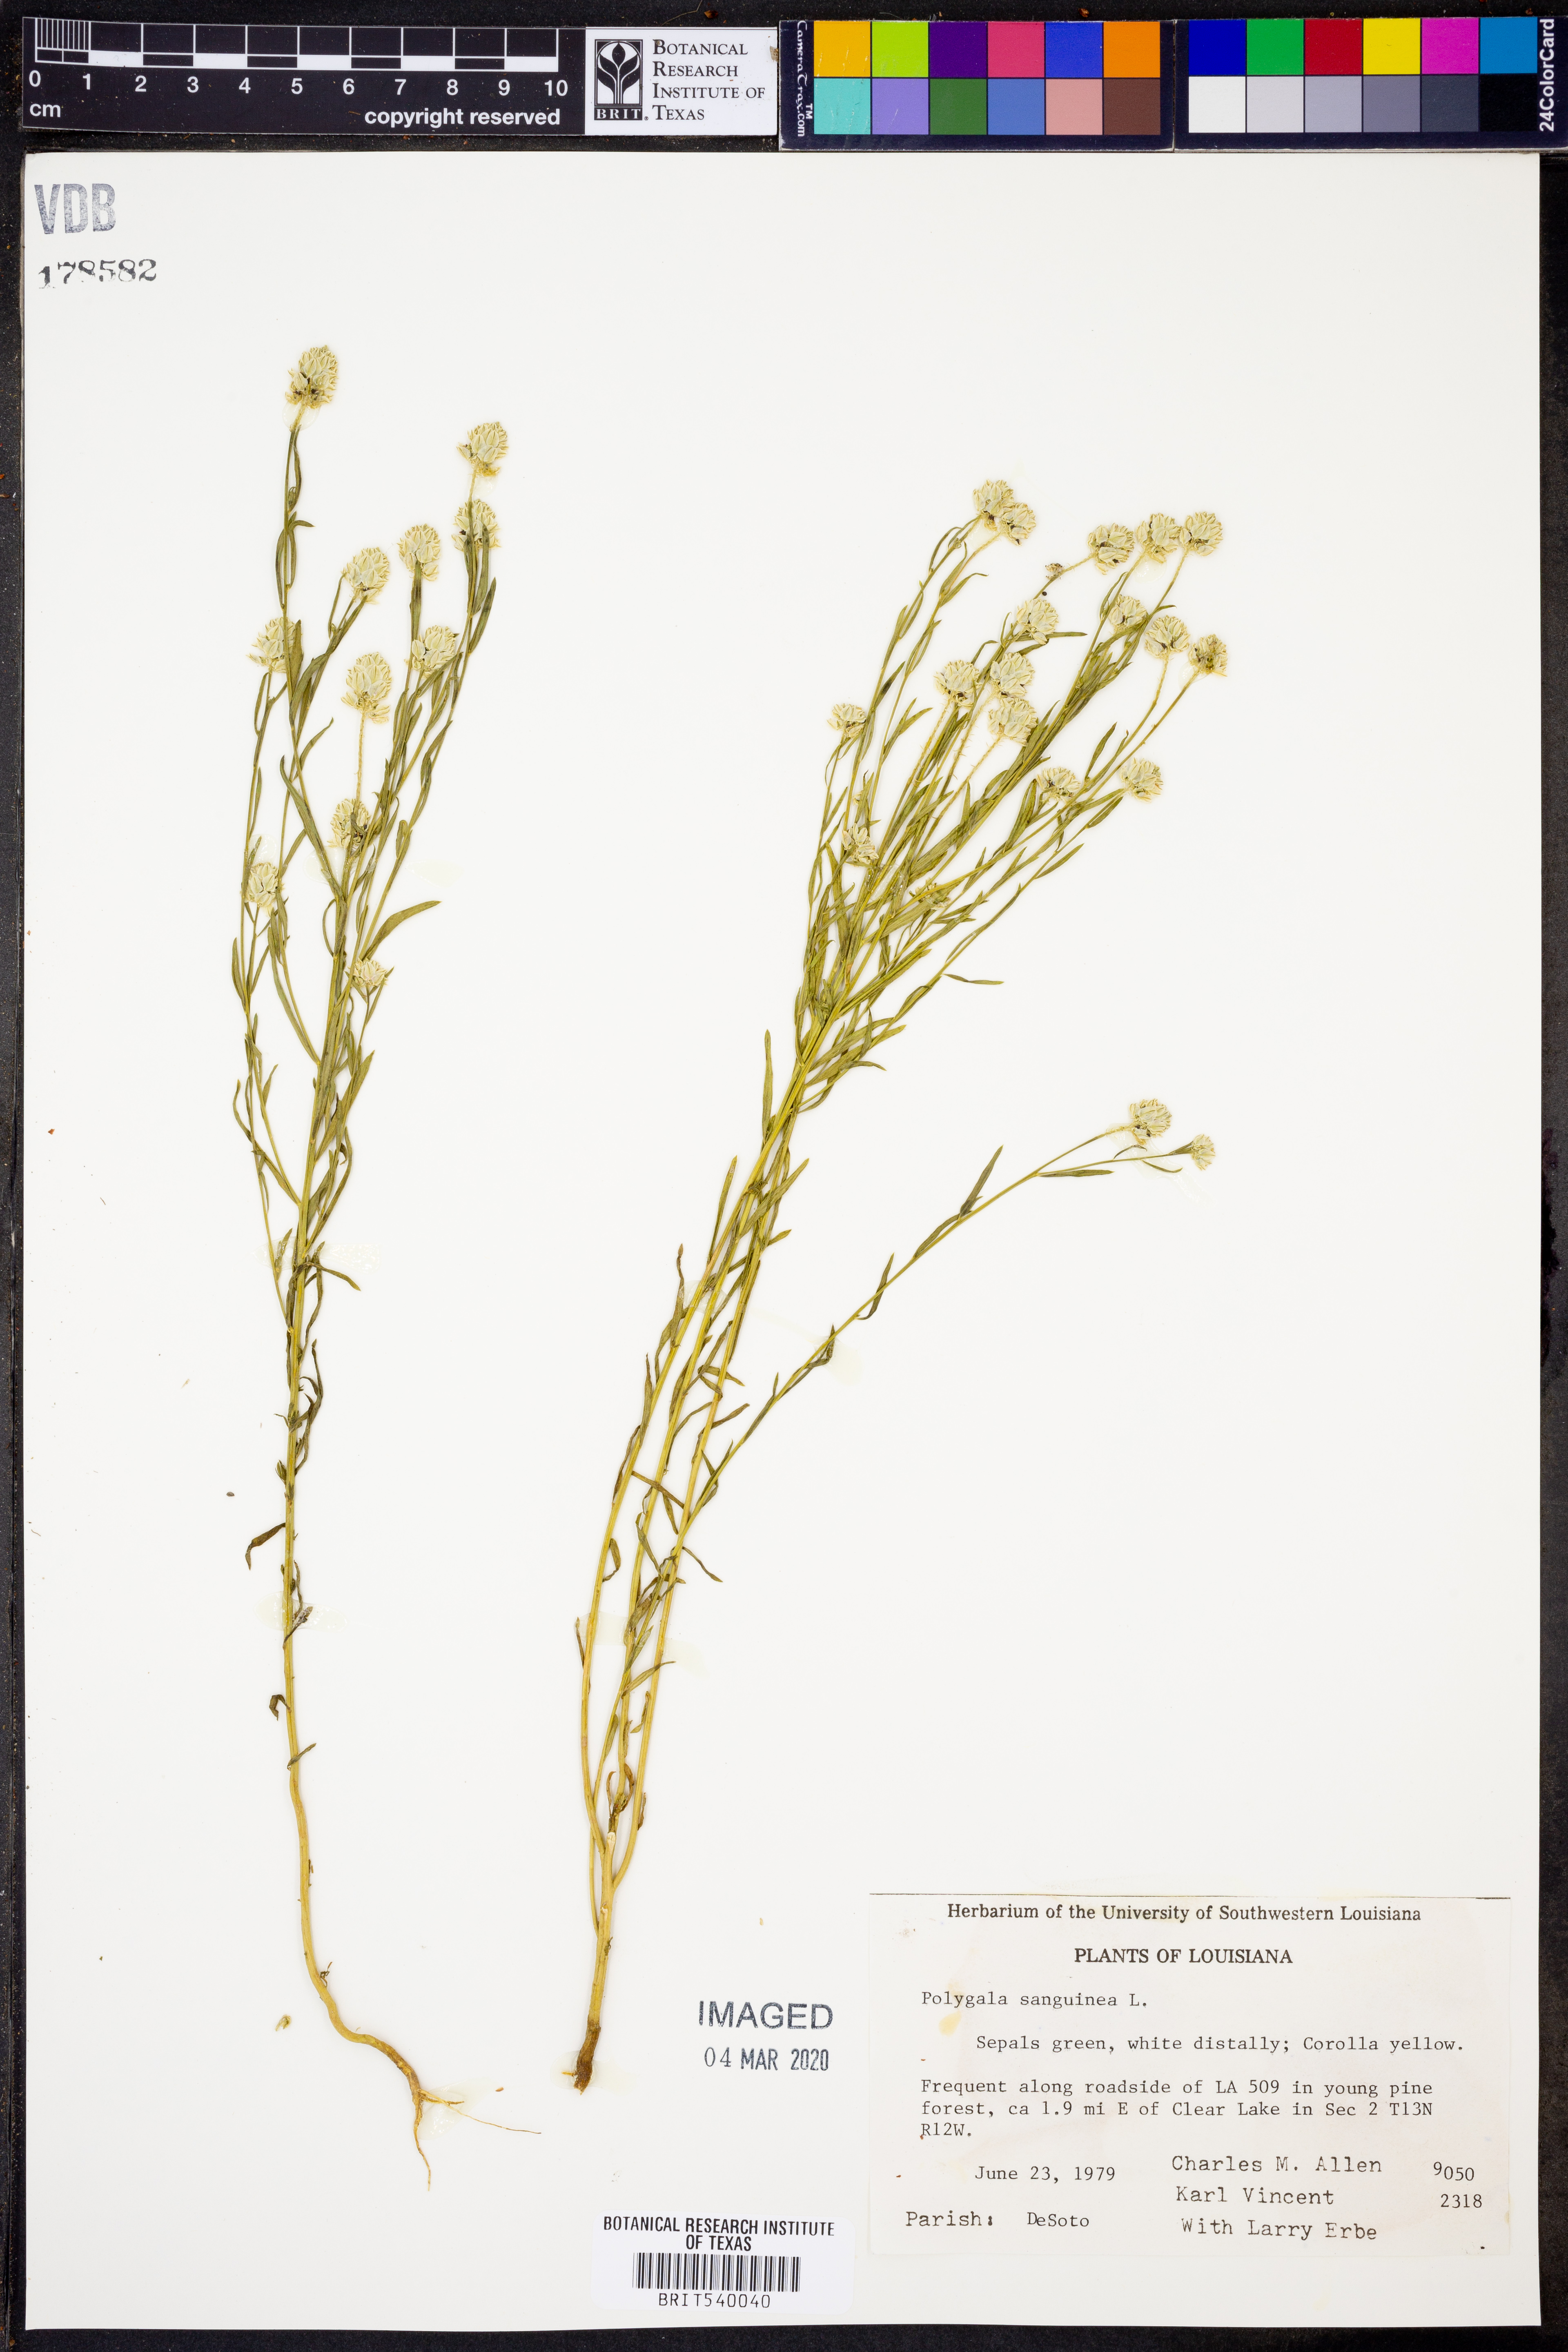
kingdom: Plantae
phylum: Tracheophyta
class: Magnoliopsida
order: Fabales
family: Polygalaceae
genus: Polygala
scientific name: Polygala sanguinea
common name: Blood milkwort
